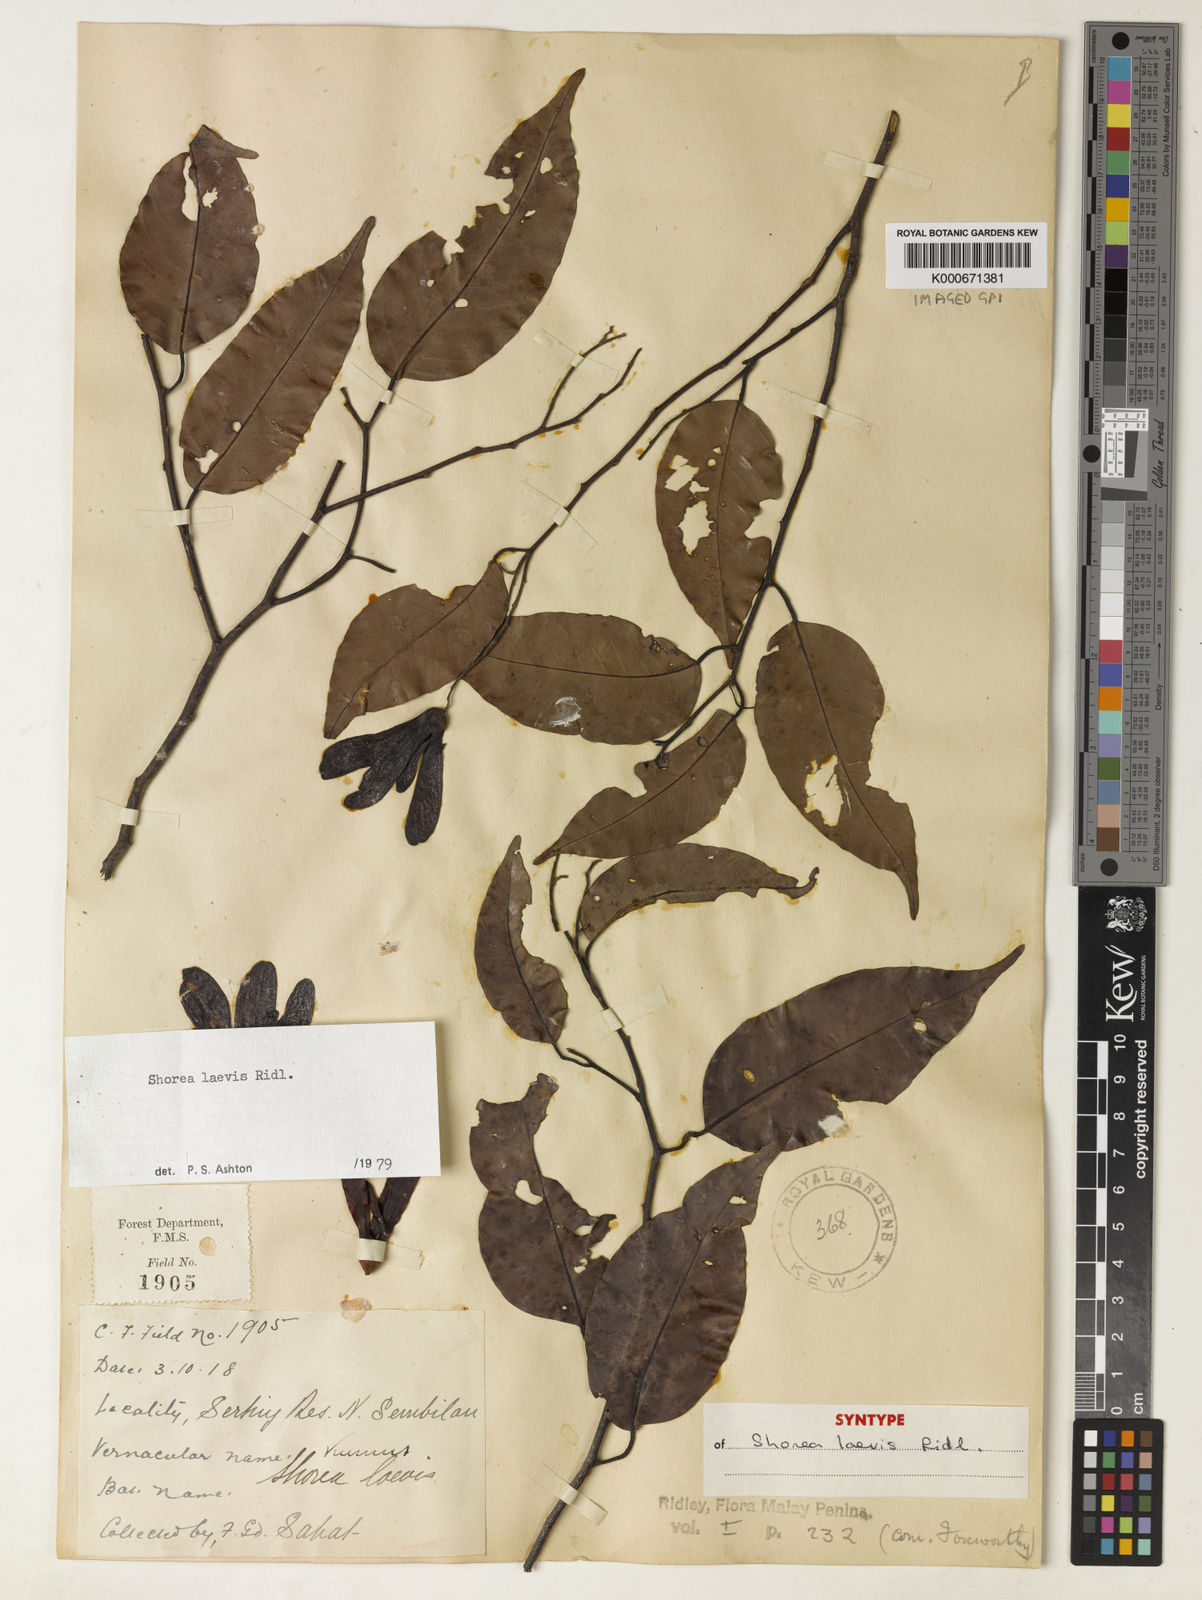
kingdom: Plantae
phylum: Tracheophyta
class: Magnoliopsida
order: Malvales
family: Dipterocarpaceae
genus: Shorea
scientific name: Shorea laevis
